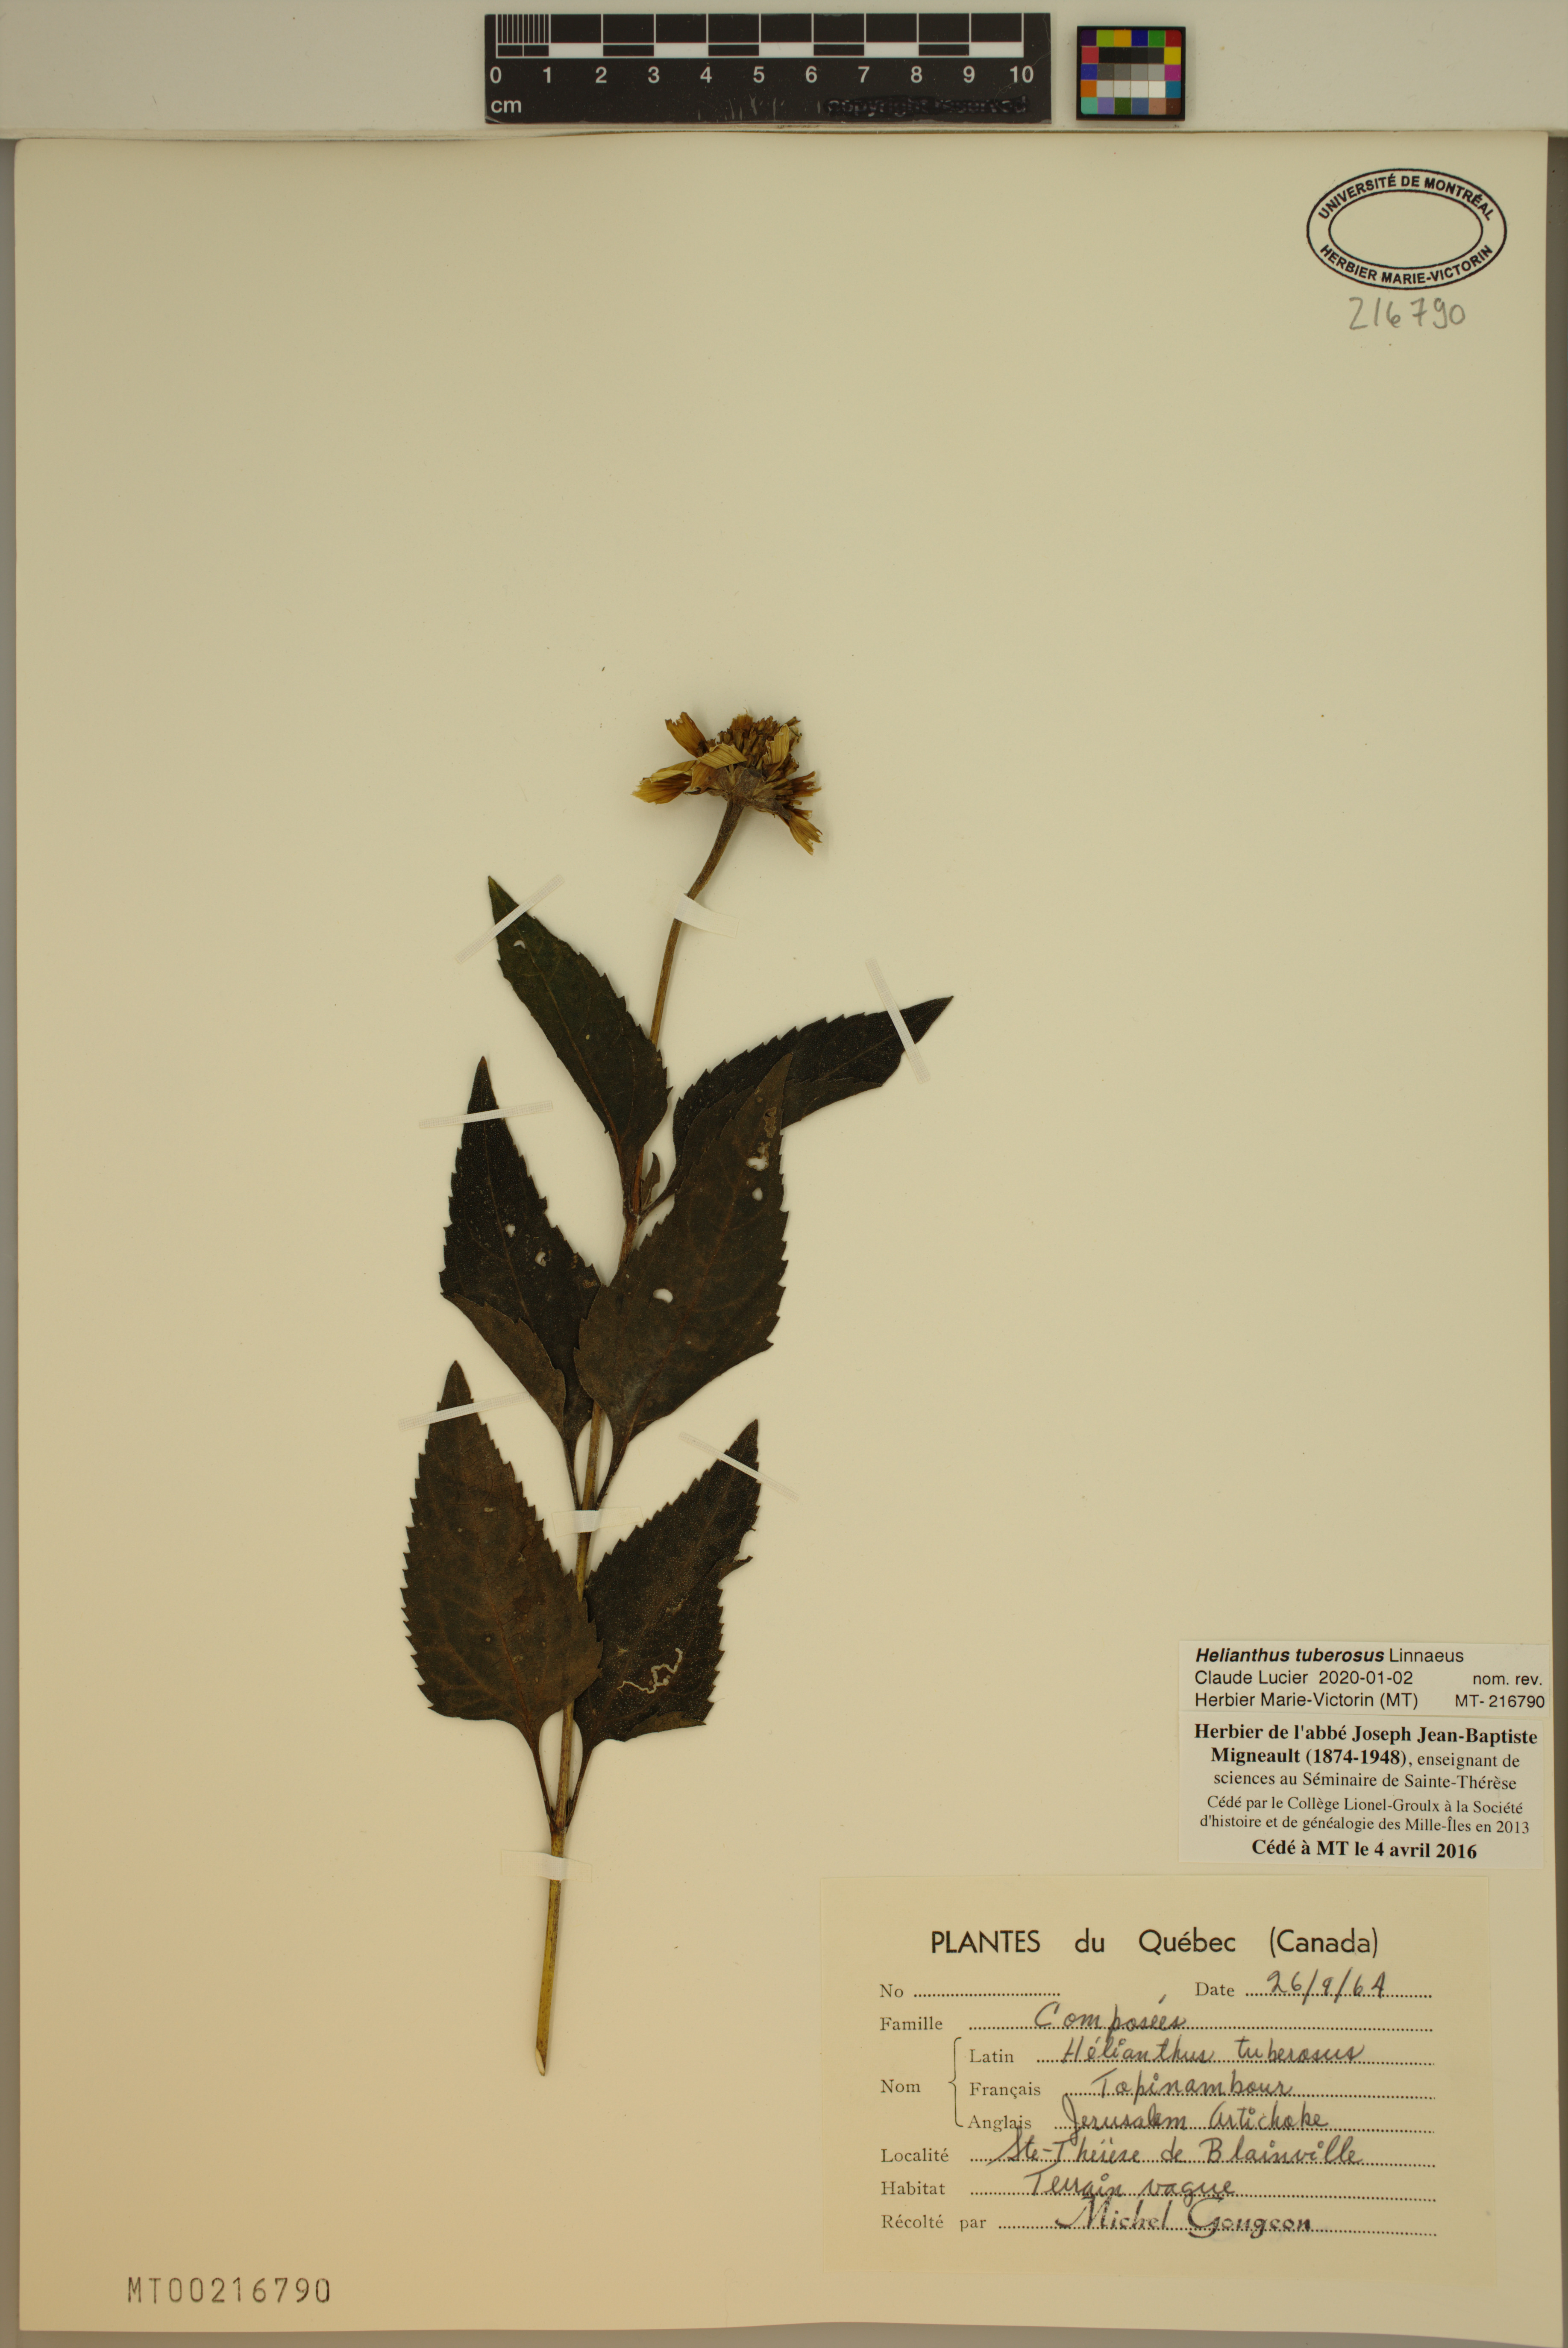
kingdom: Plantae
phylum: Tracheophyta
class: Magnoliopsida
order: Asterales
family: Asteraceae
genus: Helianthus
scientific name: Helianthus tuberosus
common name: Jerusalem artichoke
